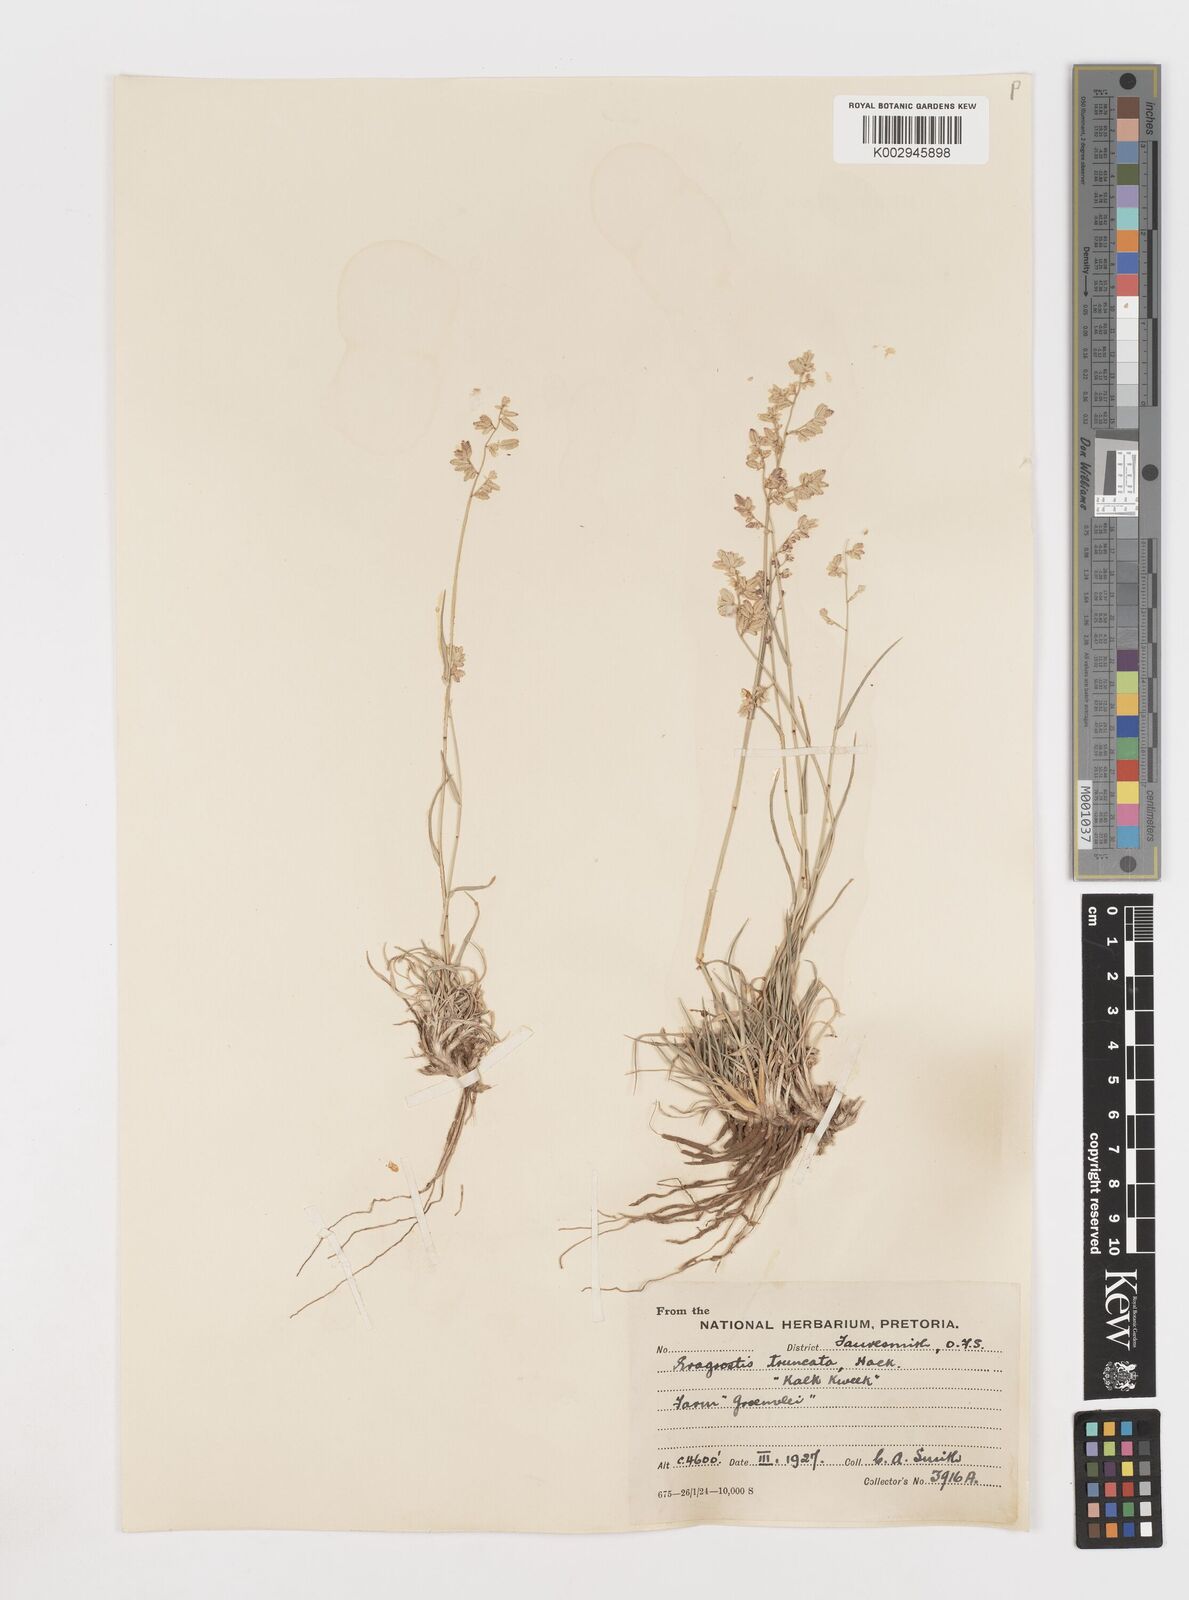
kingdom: Plantae
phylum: Tracheophyta
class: Liliopsida
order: Poales
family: Poaceae
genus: Eragrostis
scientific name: Eragrostis truncata
